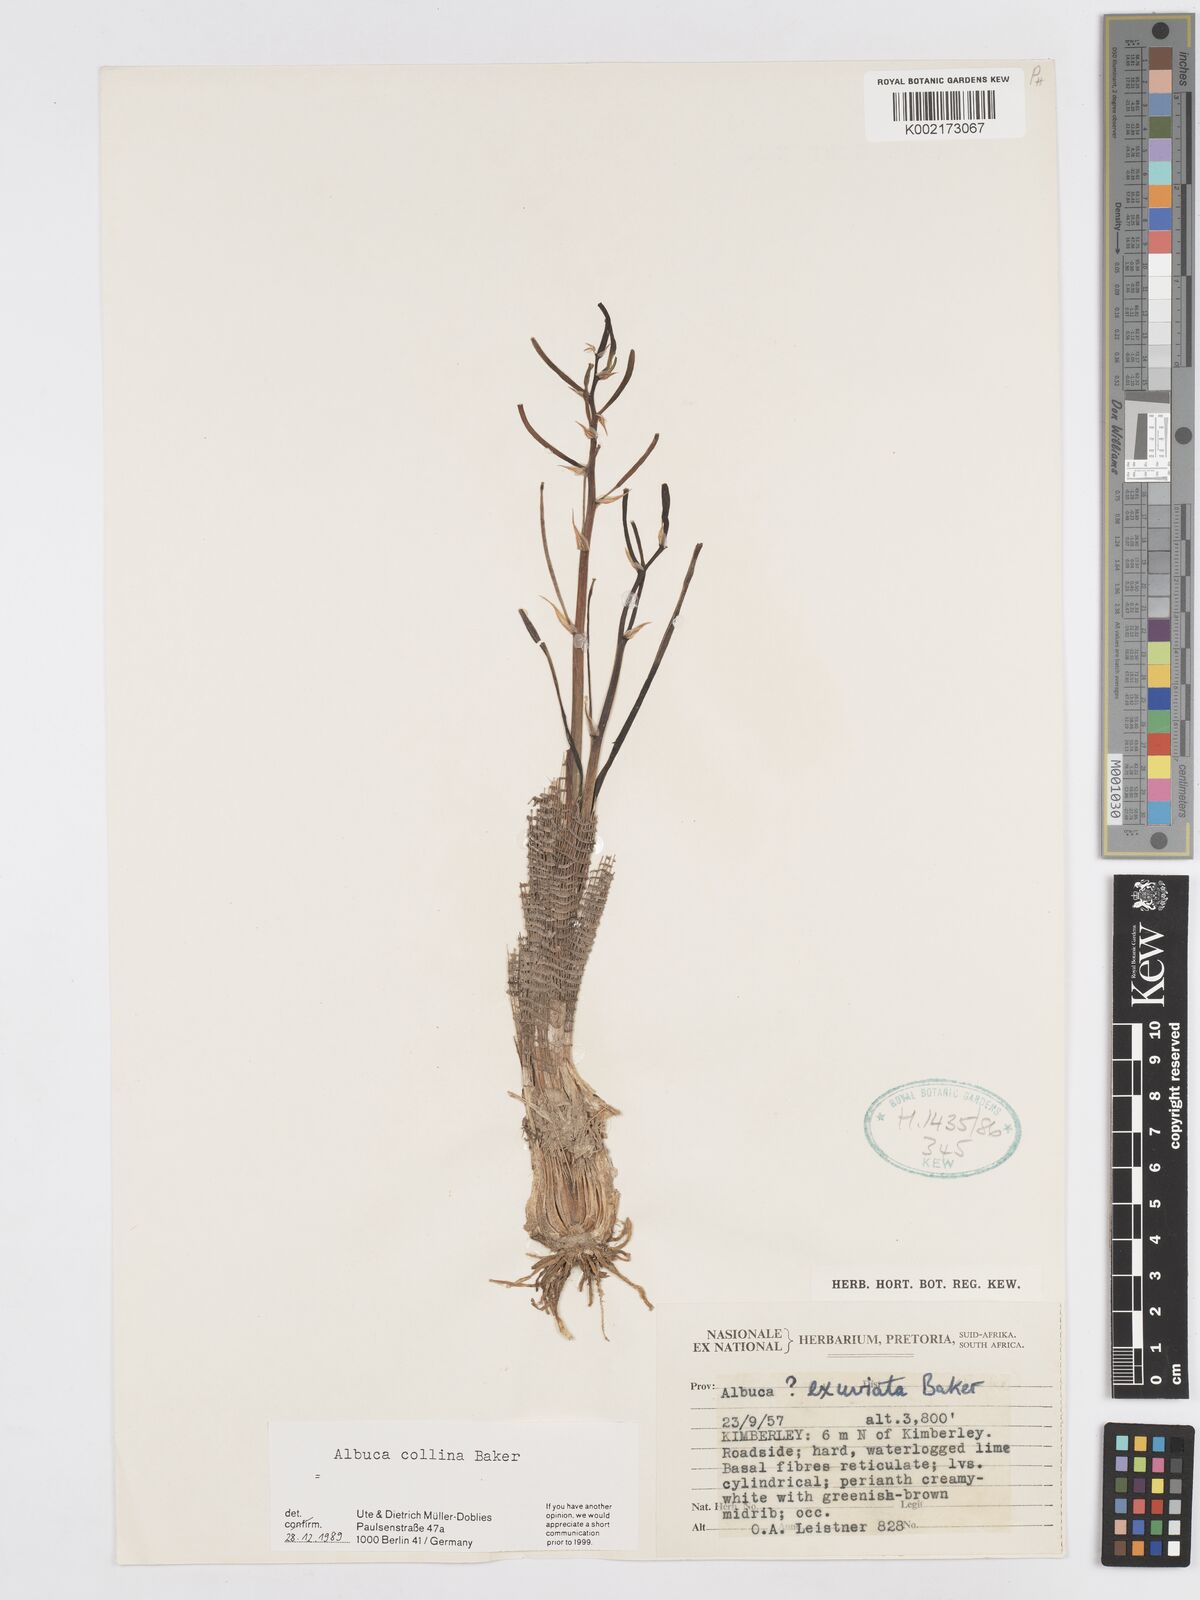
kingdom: Plantae
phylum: Tracheophyta
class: Liliopsida
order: Asparagales
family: Asparagaceae
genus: Albuca
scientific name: Albuca collina
